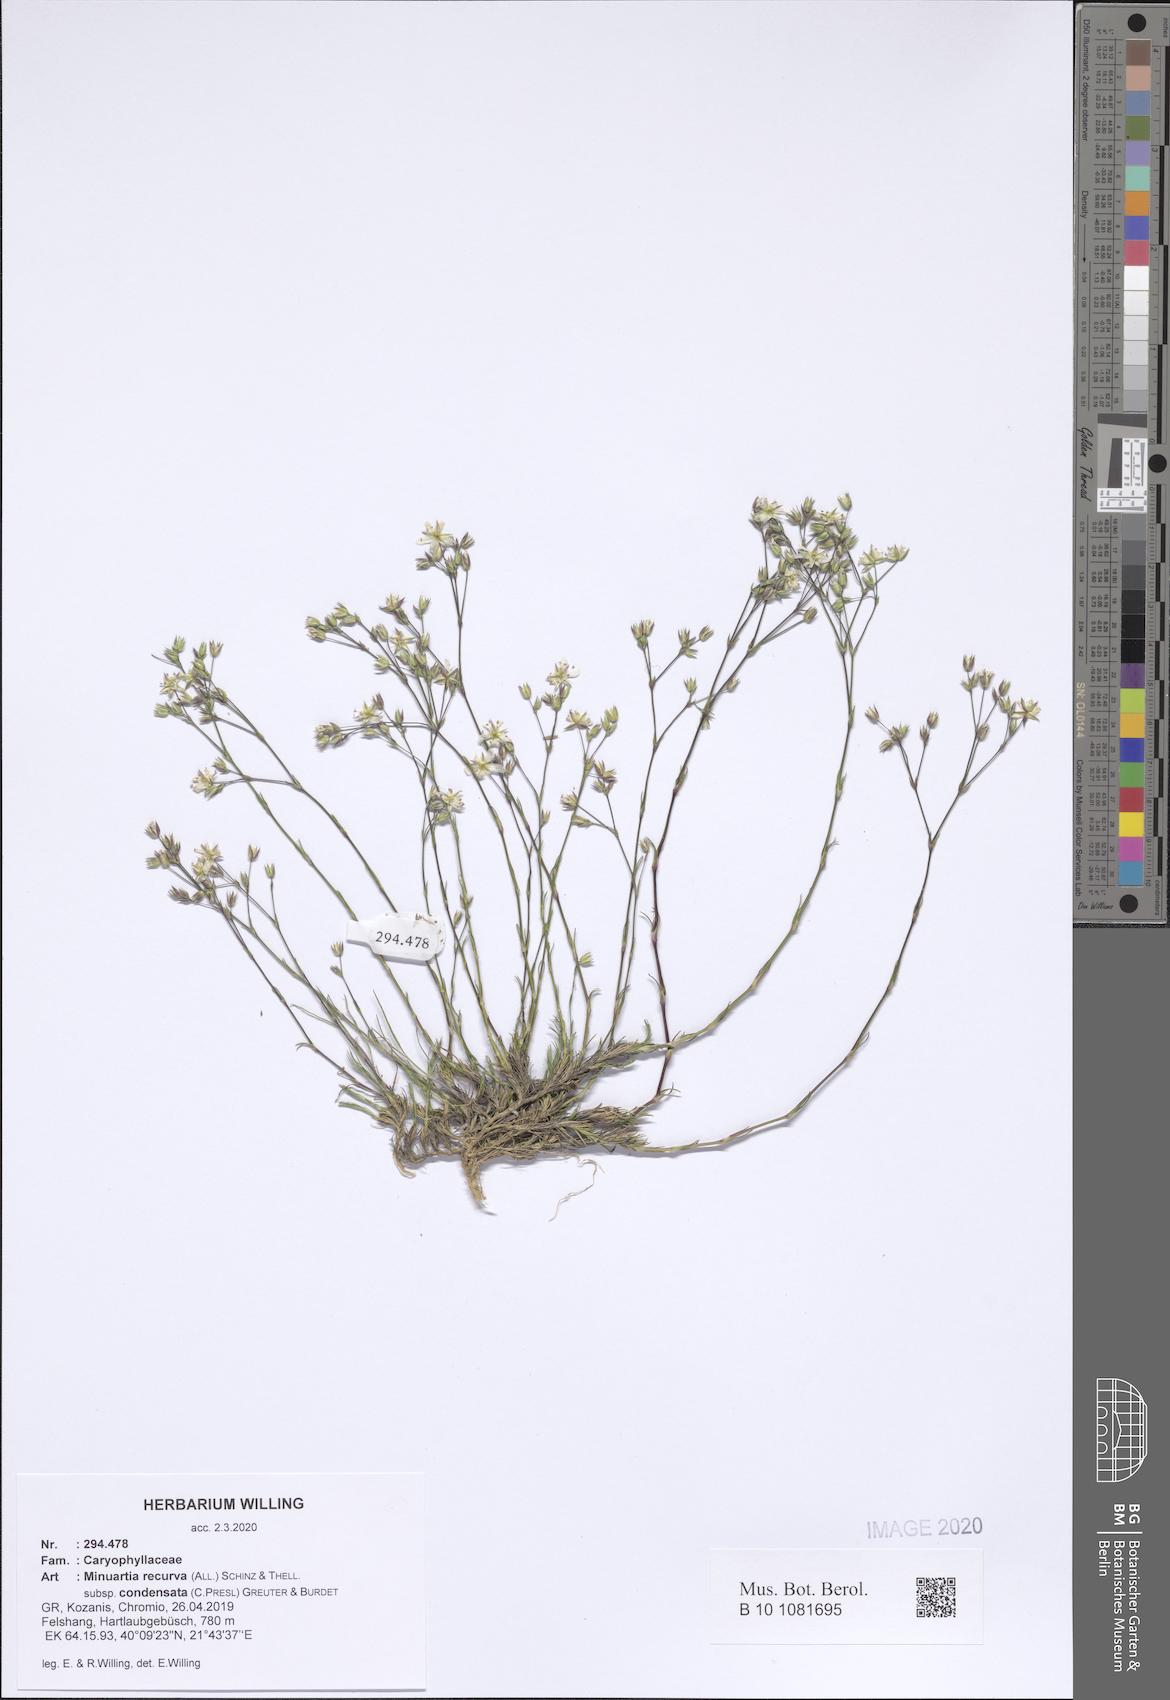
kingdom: Plantae
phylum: Tracheophyta
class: Magnoliopsida
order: Caryophyllales
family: Caryophyllaceae
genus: Minuartia
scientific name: Minuartia recurva
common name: Recurved sandwort
